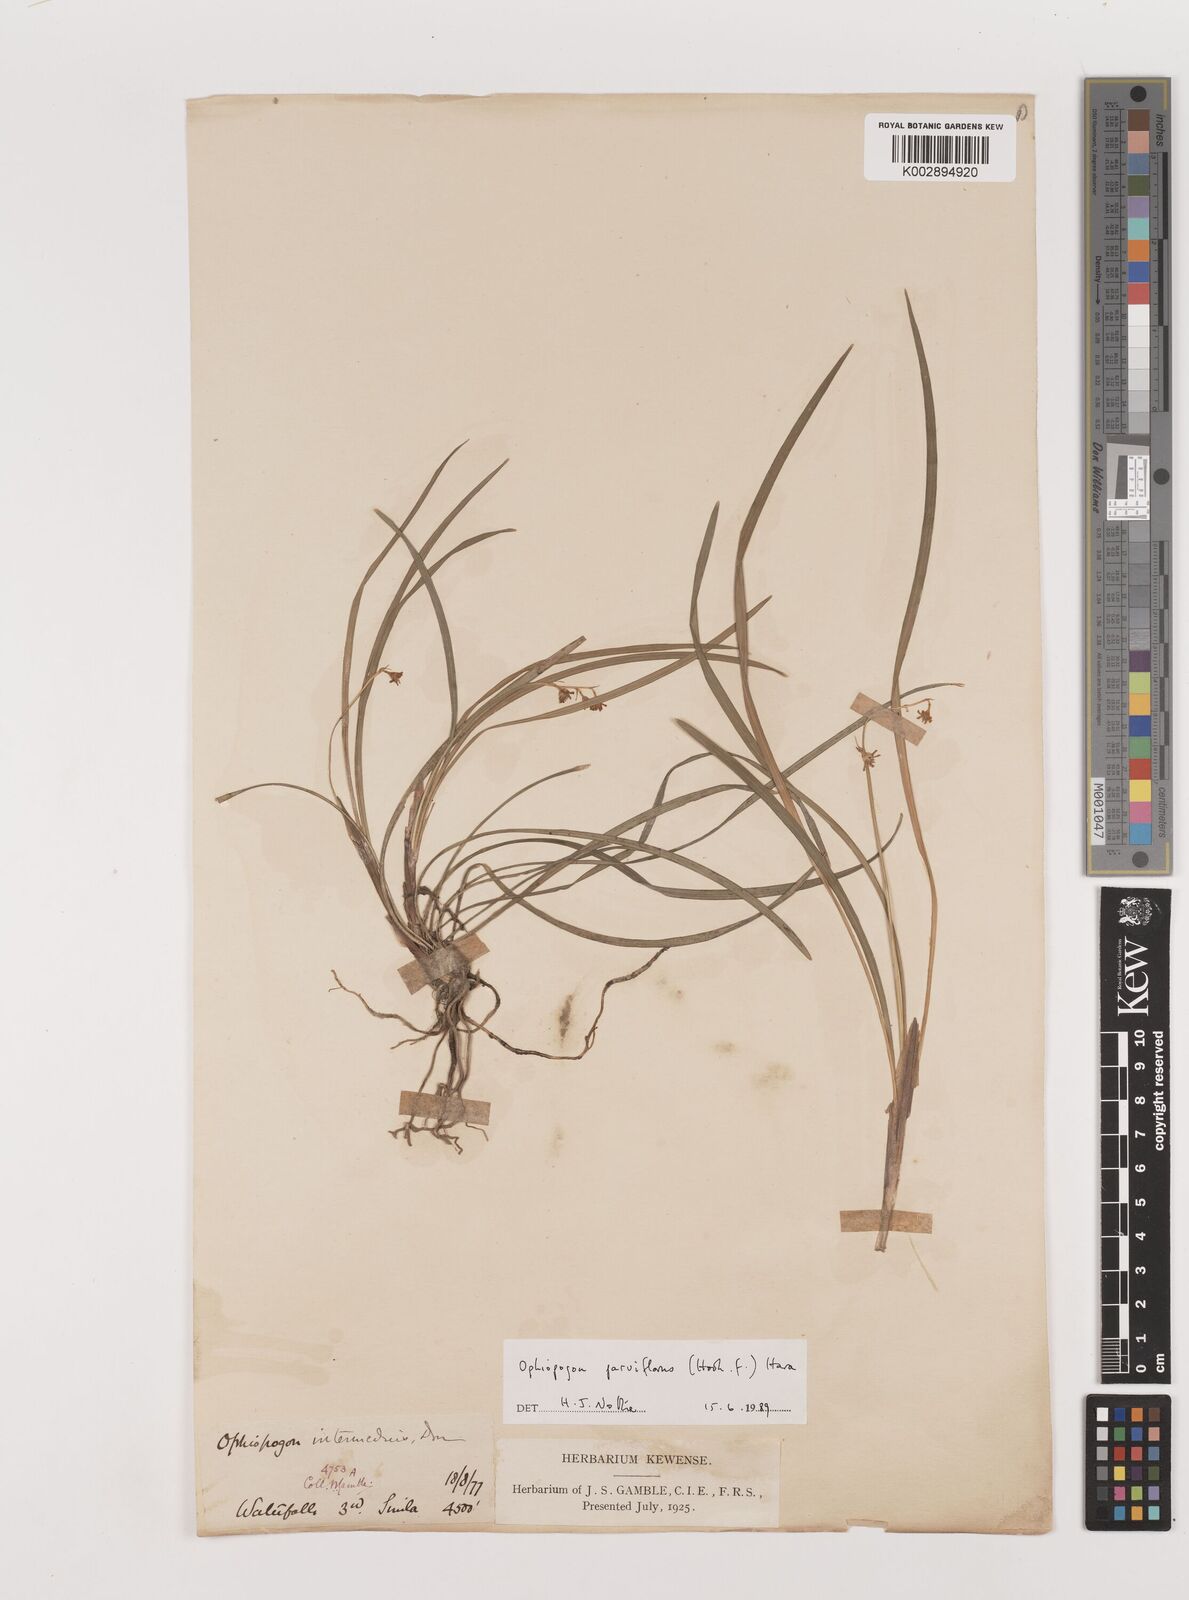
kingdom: Plantae
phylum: Tracheophyta
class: Liliopsida
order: Asparagales
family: Asparagaceae
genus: Ophiopogon
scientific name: Ophiopogon intermedius
